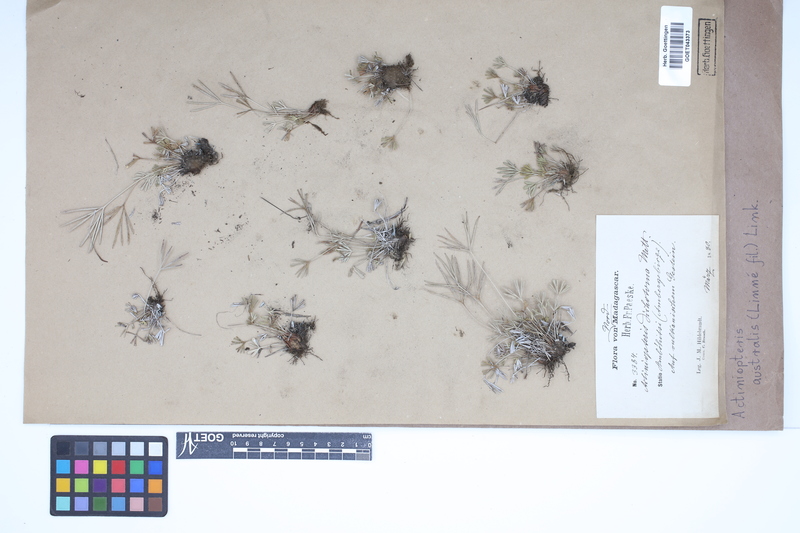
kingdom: Plantae
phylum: Tracheophyta
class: Polypodiopsida
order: Polypodiales
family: Pteridaceae
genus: Actiniopteris
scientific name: Actiniopteris australis
